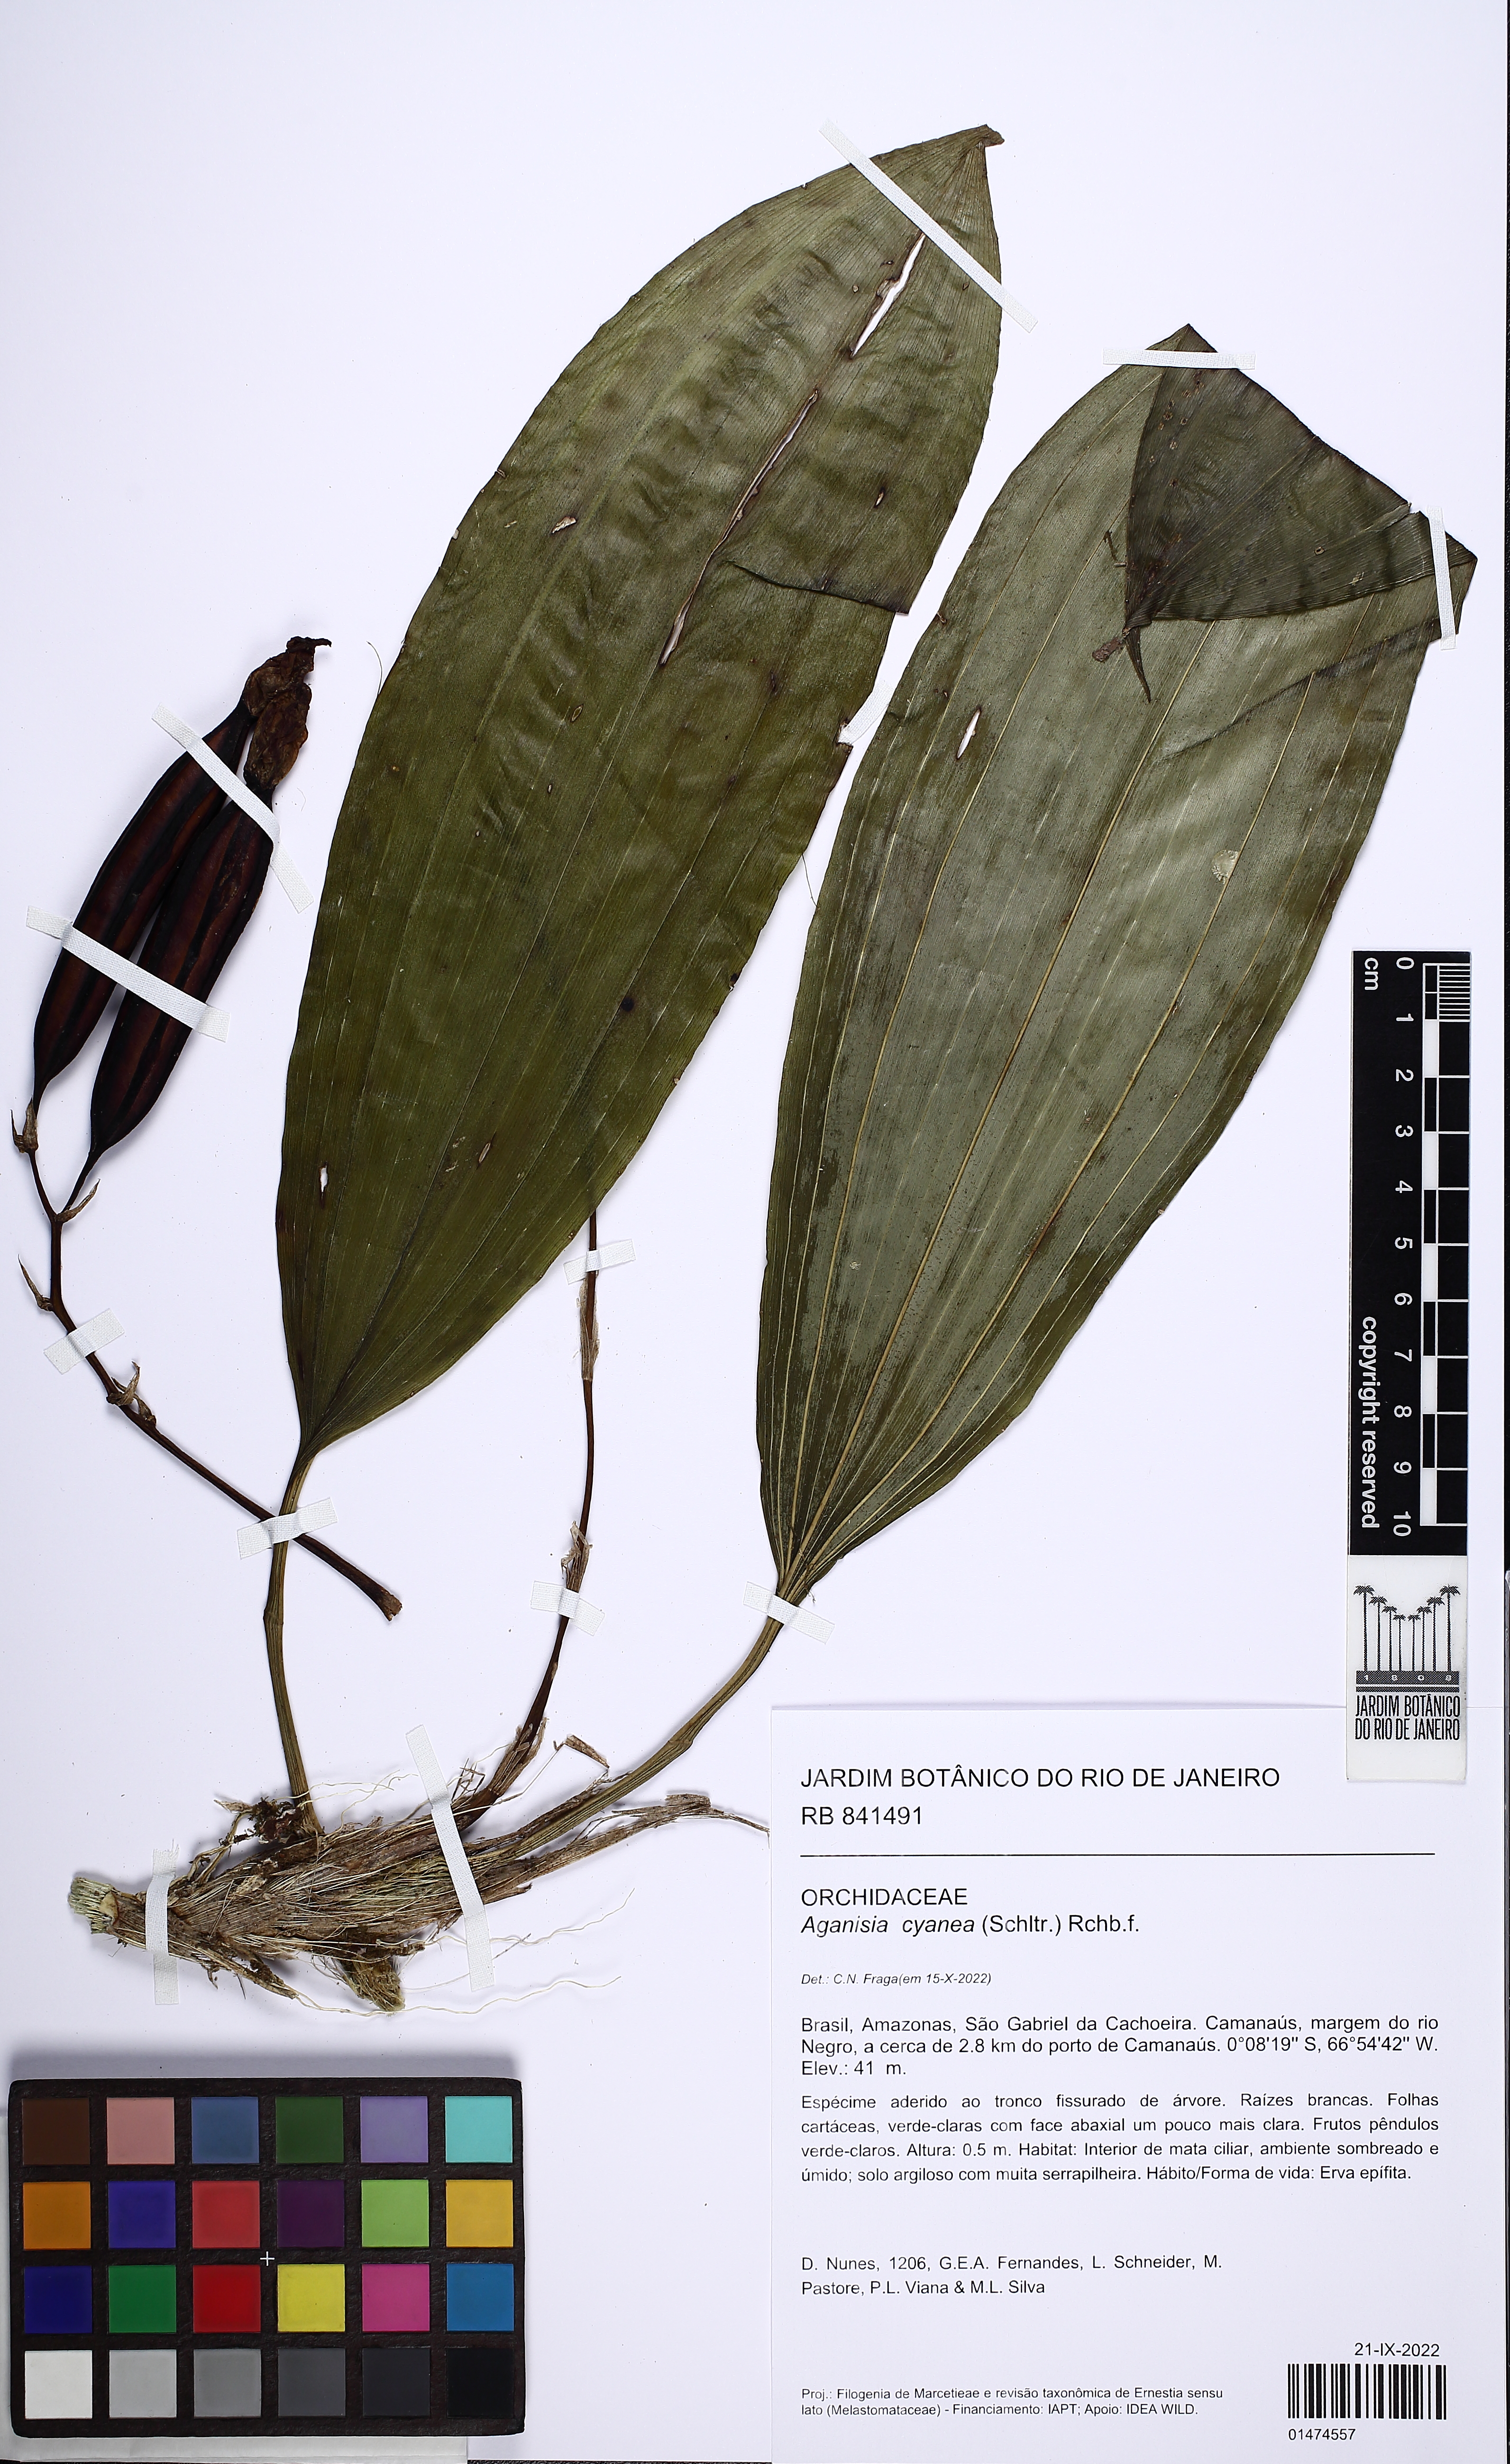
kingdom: Plantae
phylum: Tracheophyta
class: Liliopsida
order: Asparagales
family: Orchidaceae
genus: Aganisia
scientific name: Aganisia cyanea
